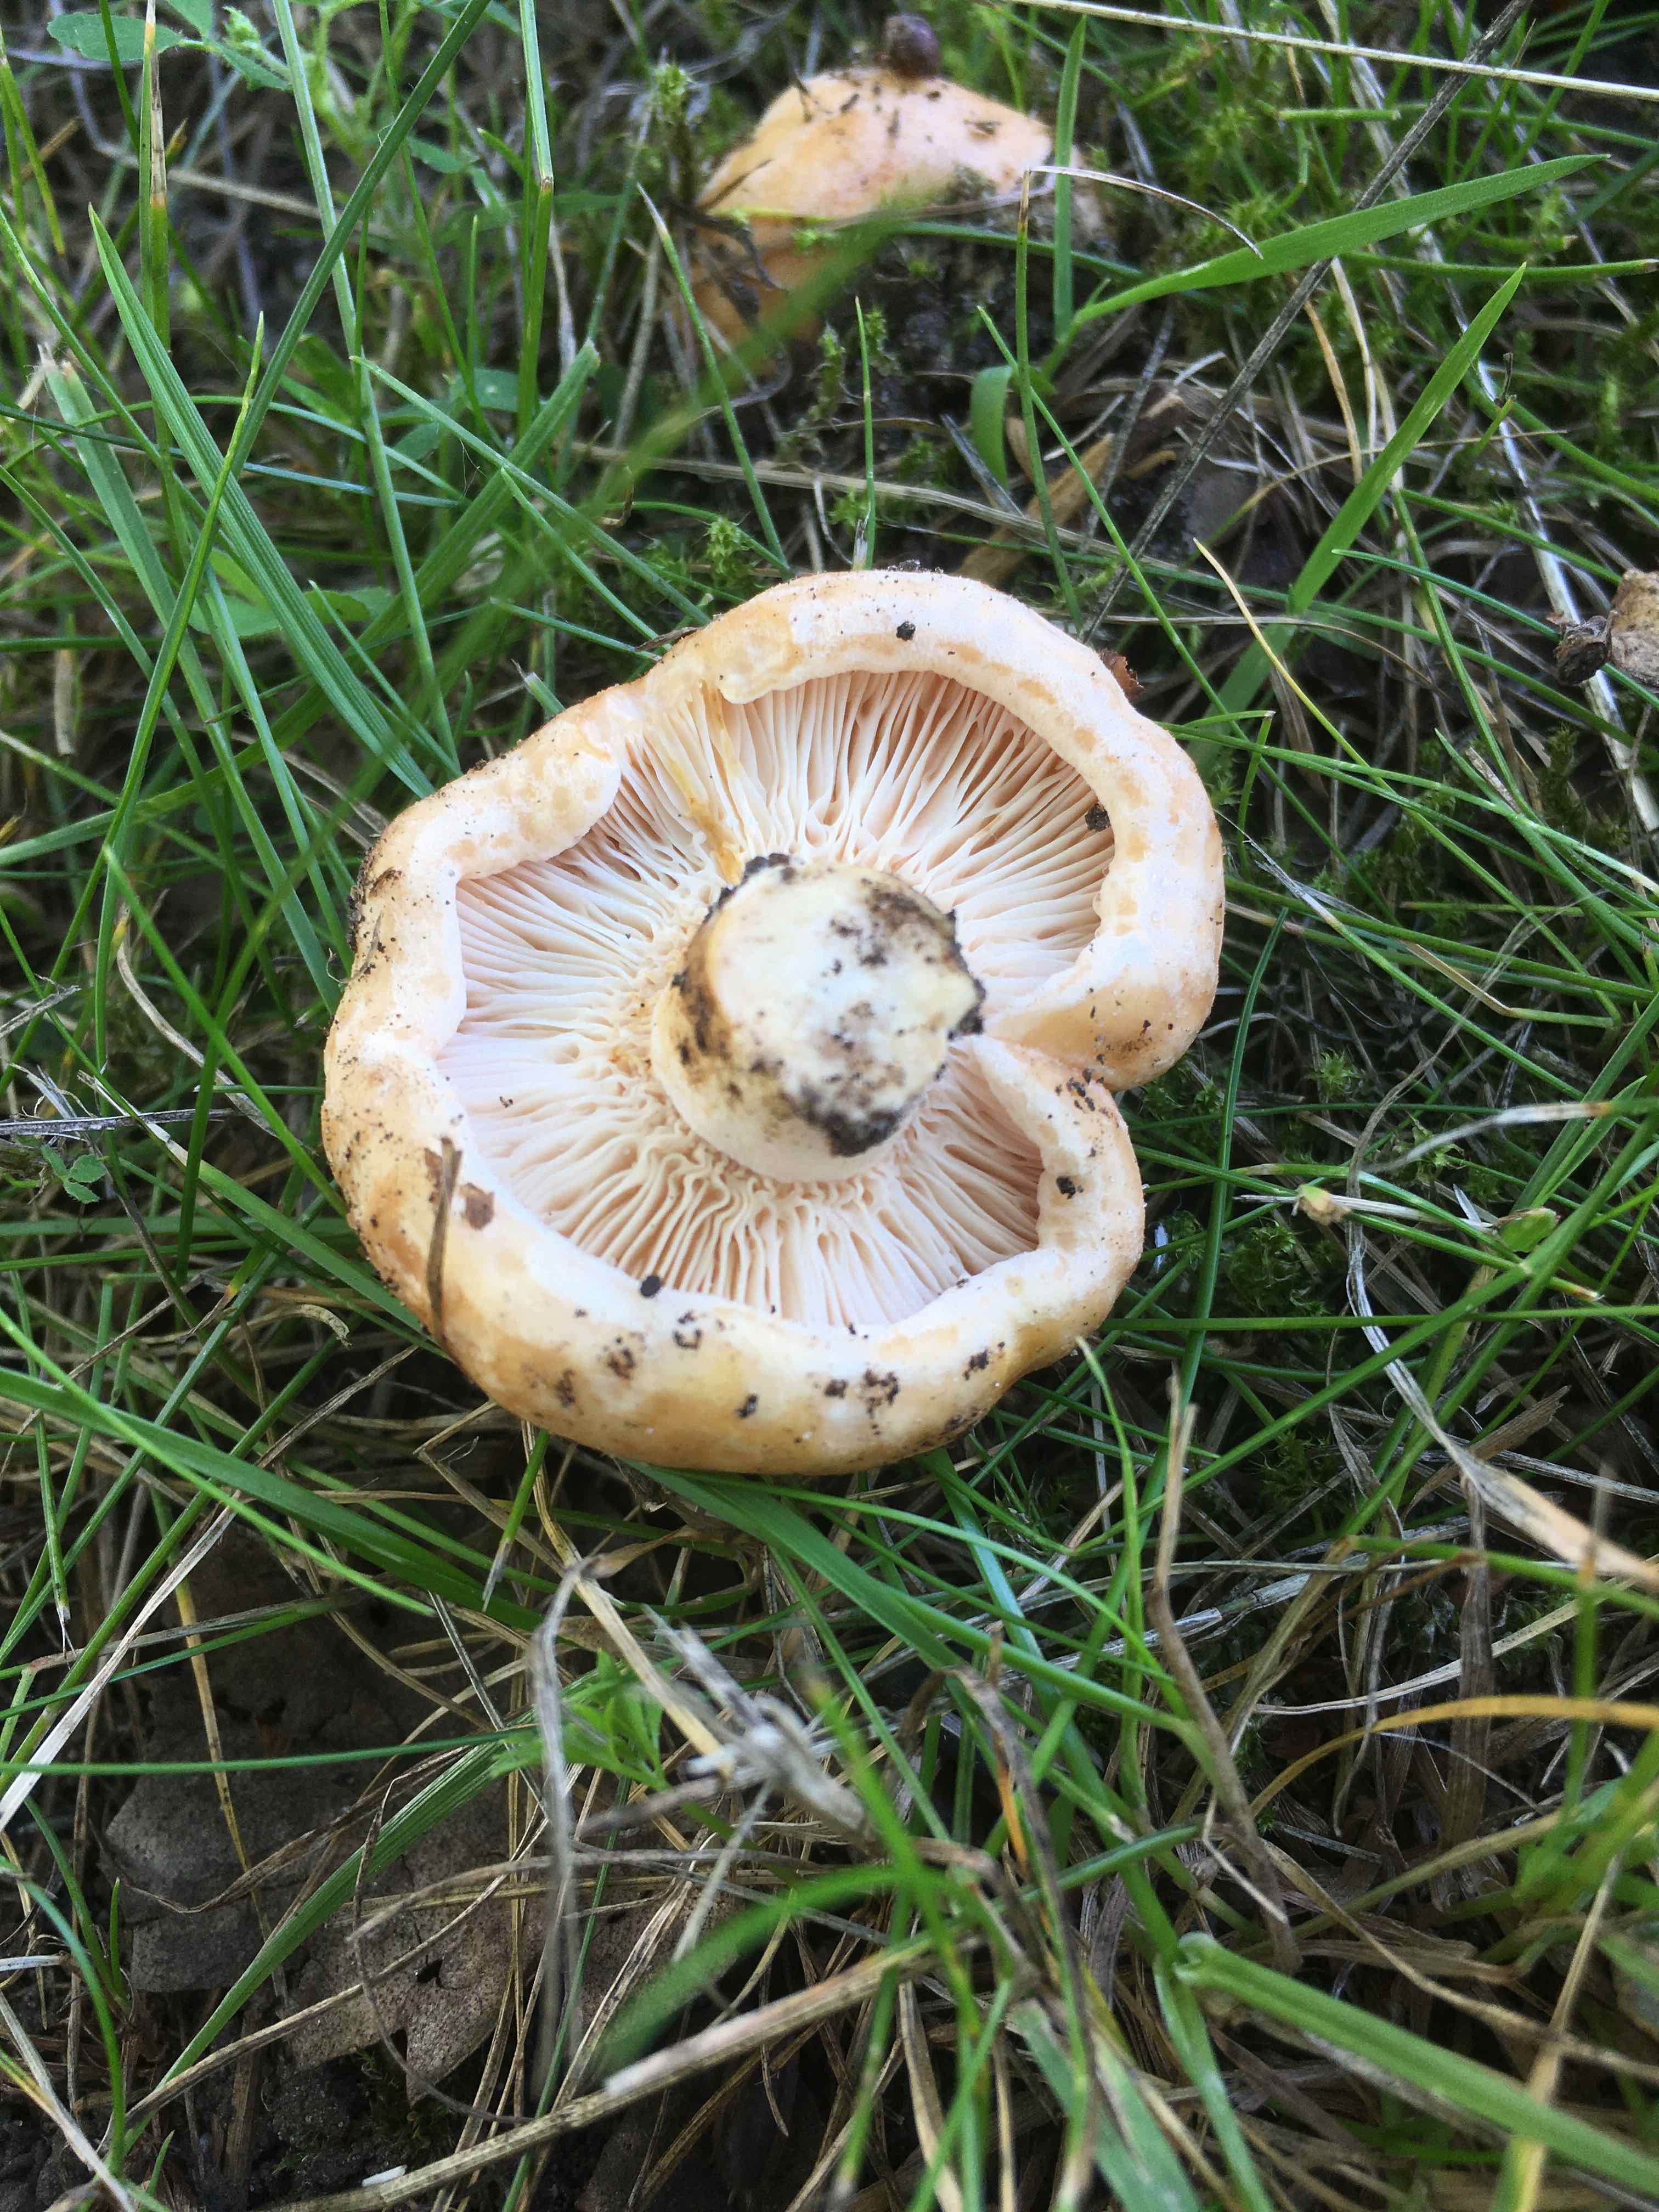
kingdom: Fungi
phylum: Basidiomycota
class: Agaricomycetes
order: Russulales
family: Russulaceae
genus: Lactarius
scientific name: Lactarius acerrimus
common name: brændende mælkehat
